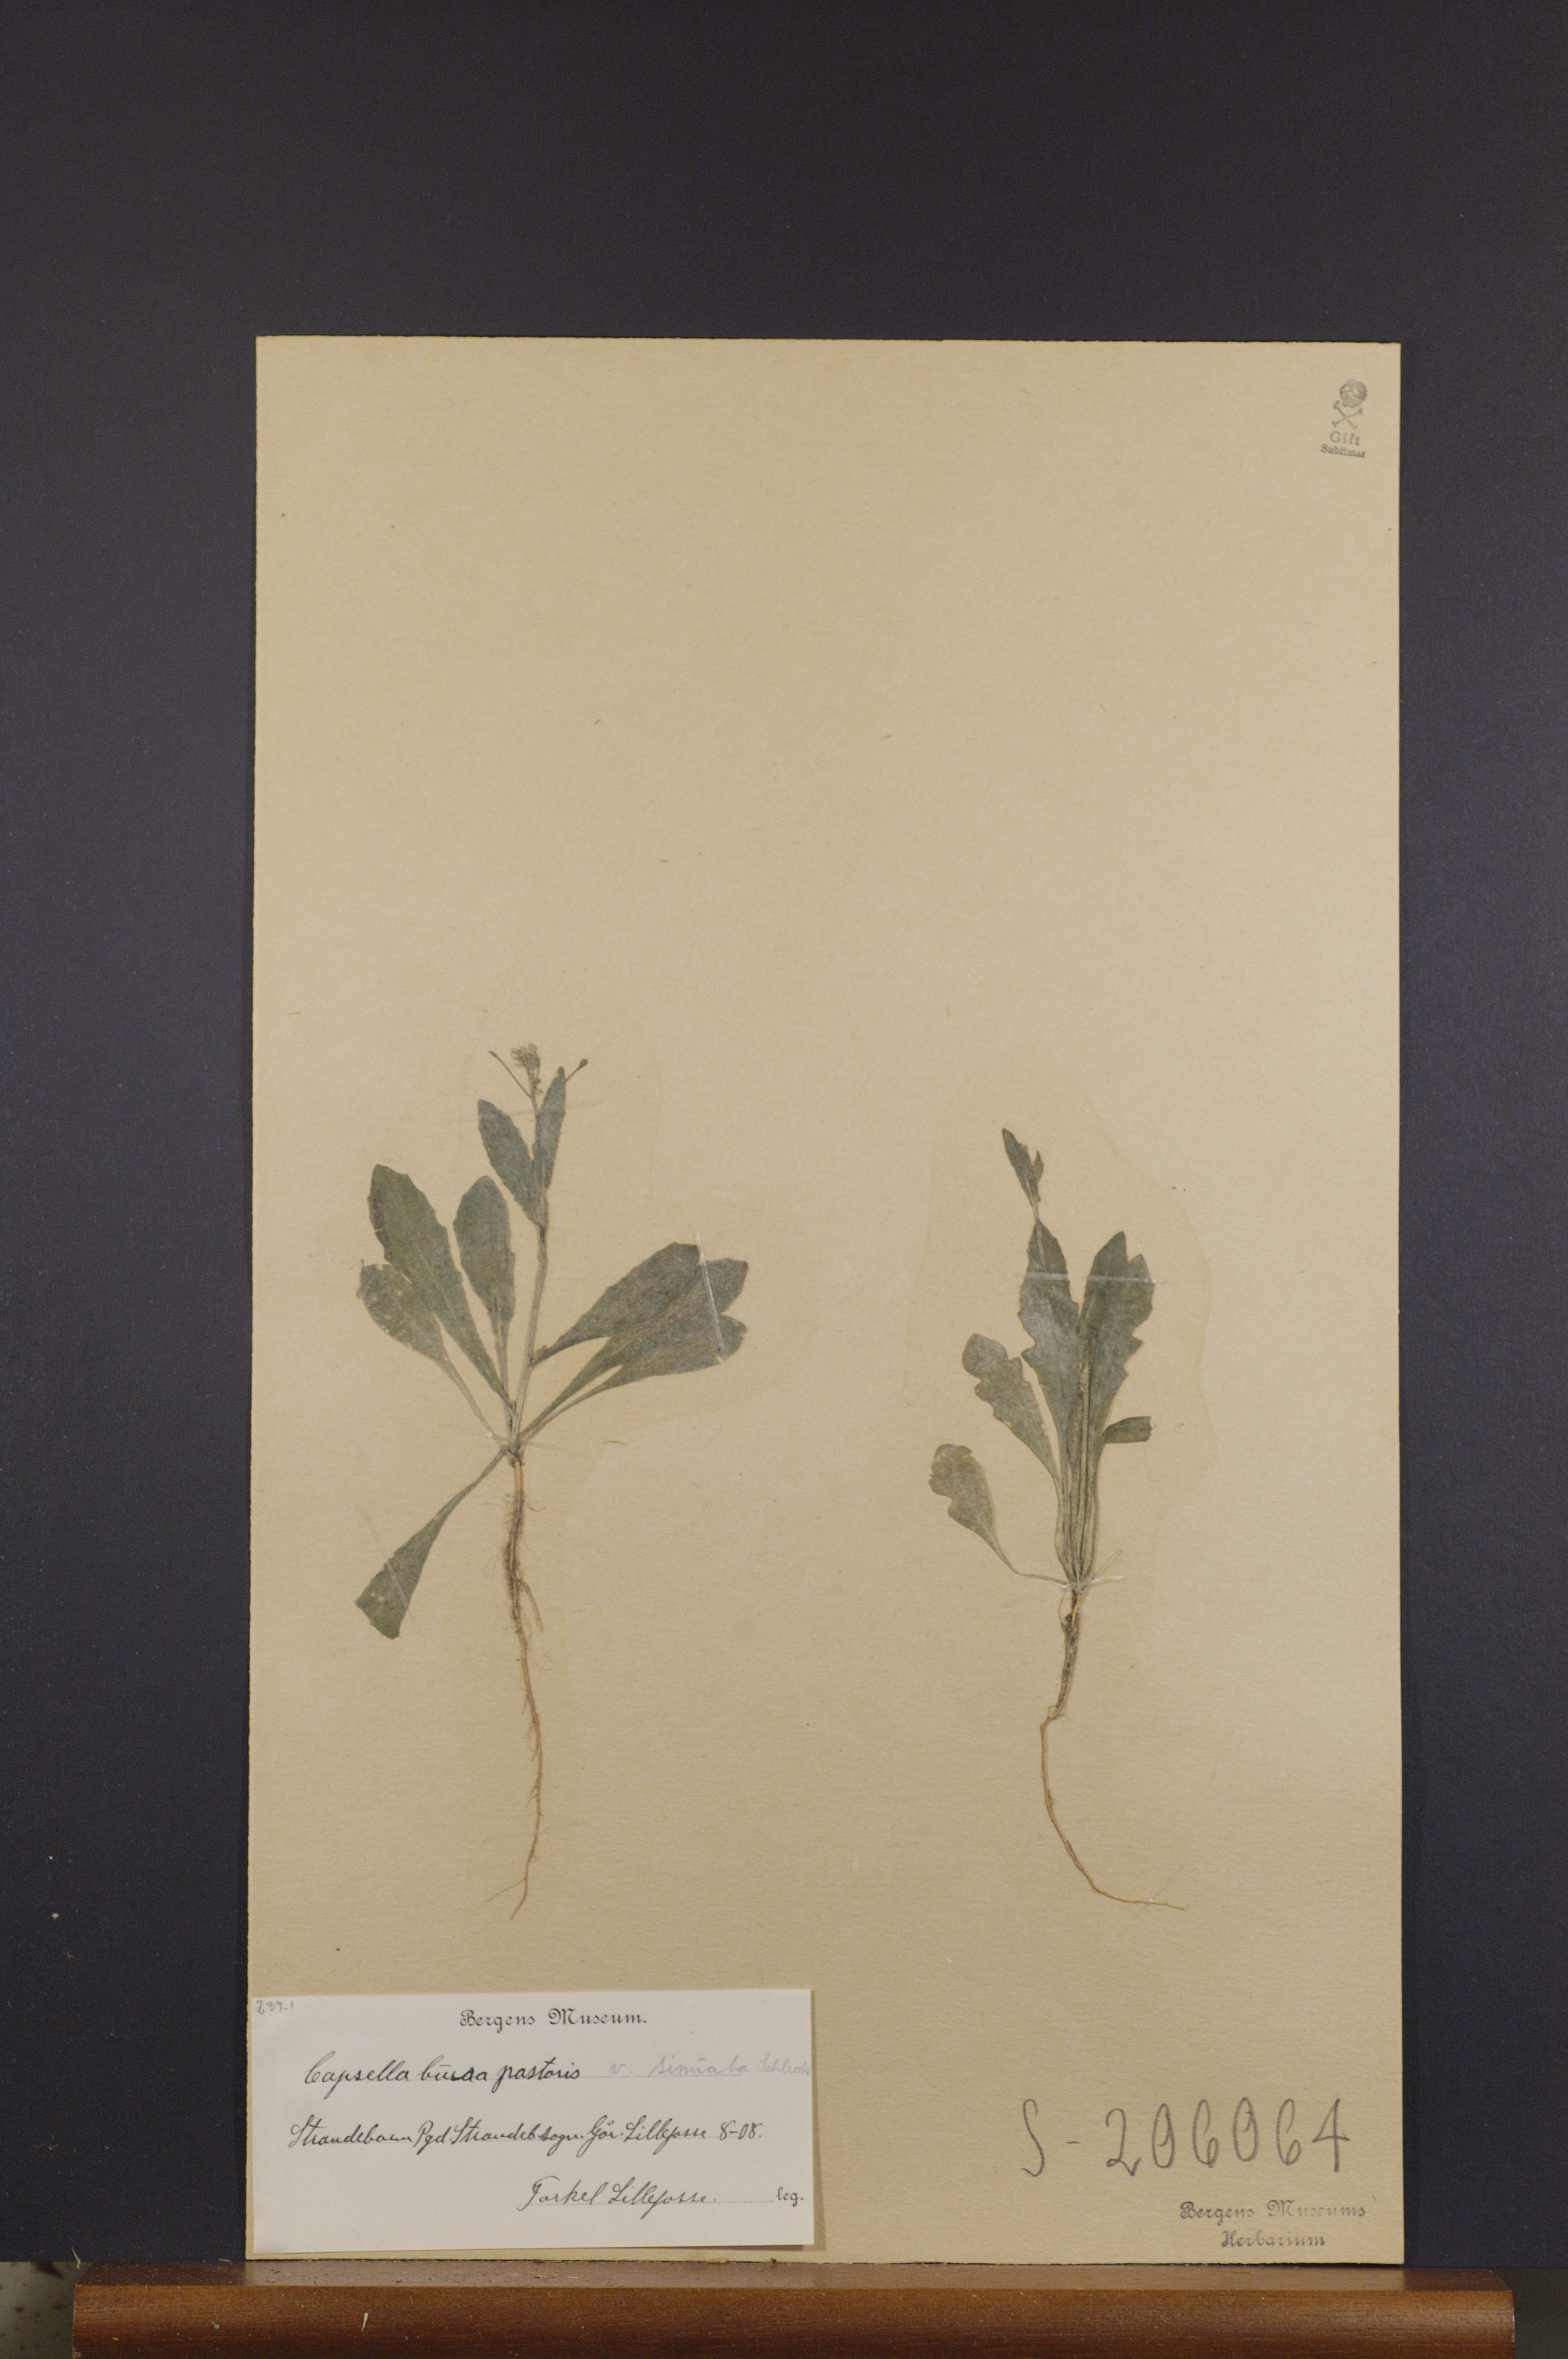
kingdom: Plantae
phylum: Tracheophyta
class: Magnoliopsida
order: Brassicales
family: Brassicaceae
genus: Capsella
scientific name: Capsella bursa-pastoris
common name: Shepherd's purse
